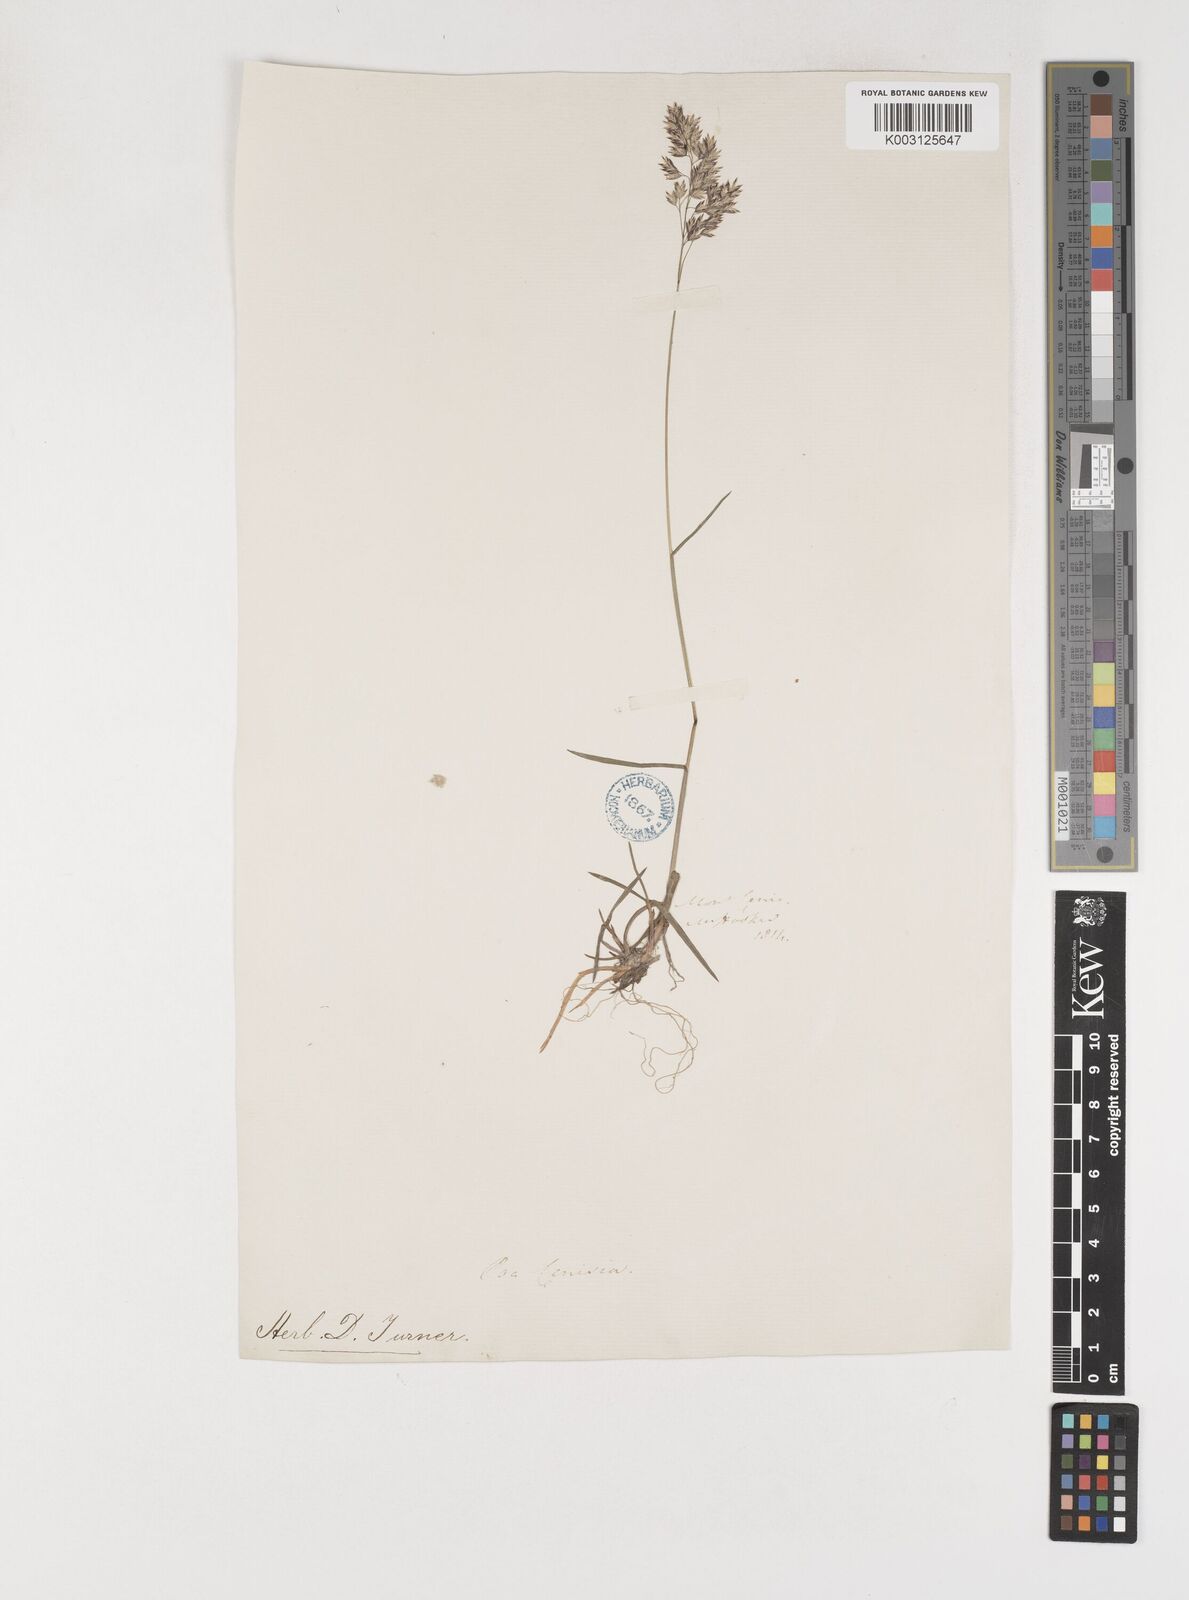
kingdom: Plantae
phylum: Tracheophyta
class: Liliopsida
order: Poales
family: Poaceae
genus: Poa
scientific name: Poa
